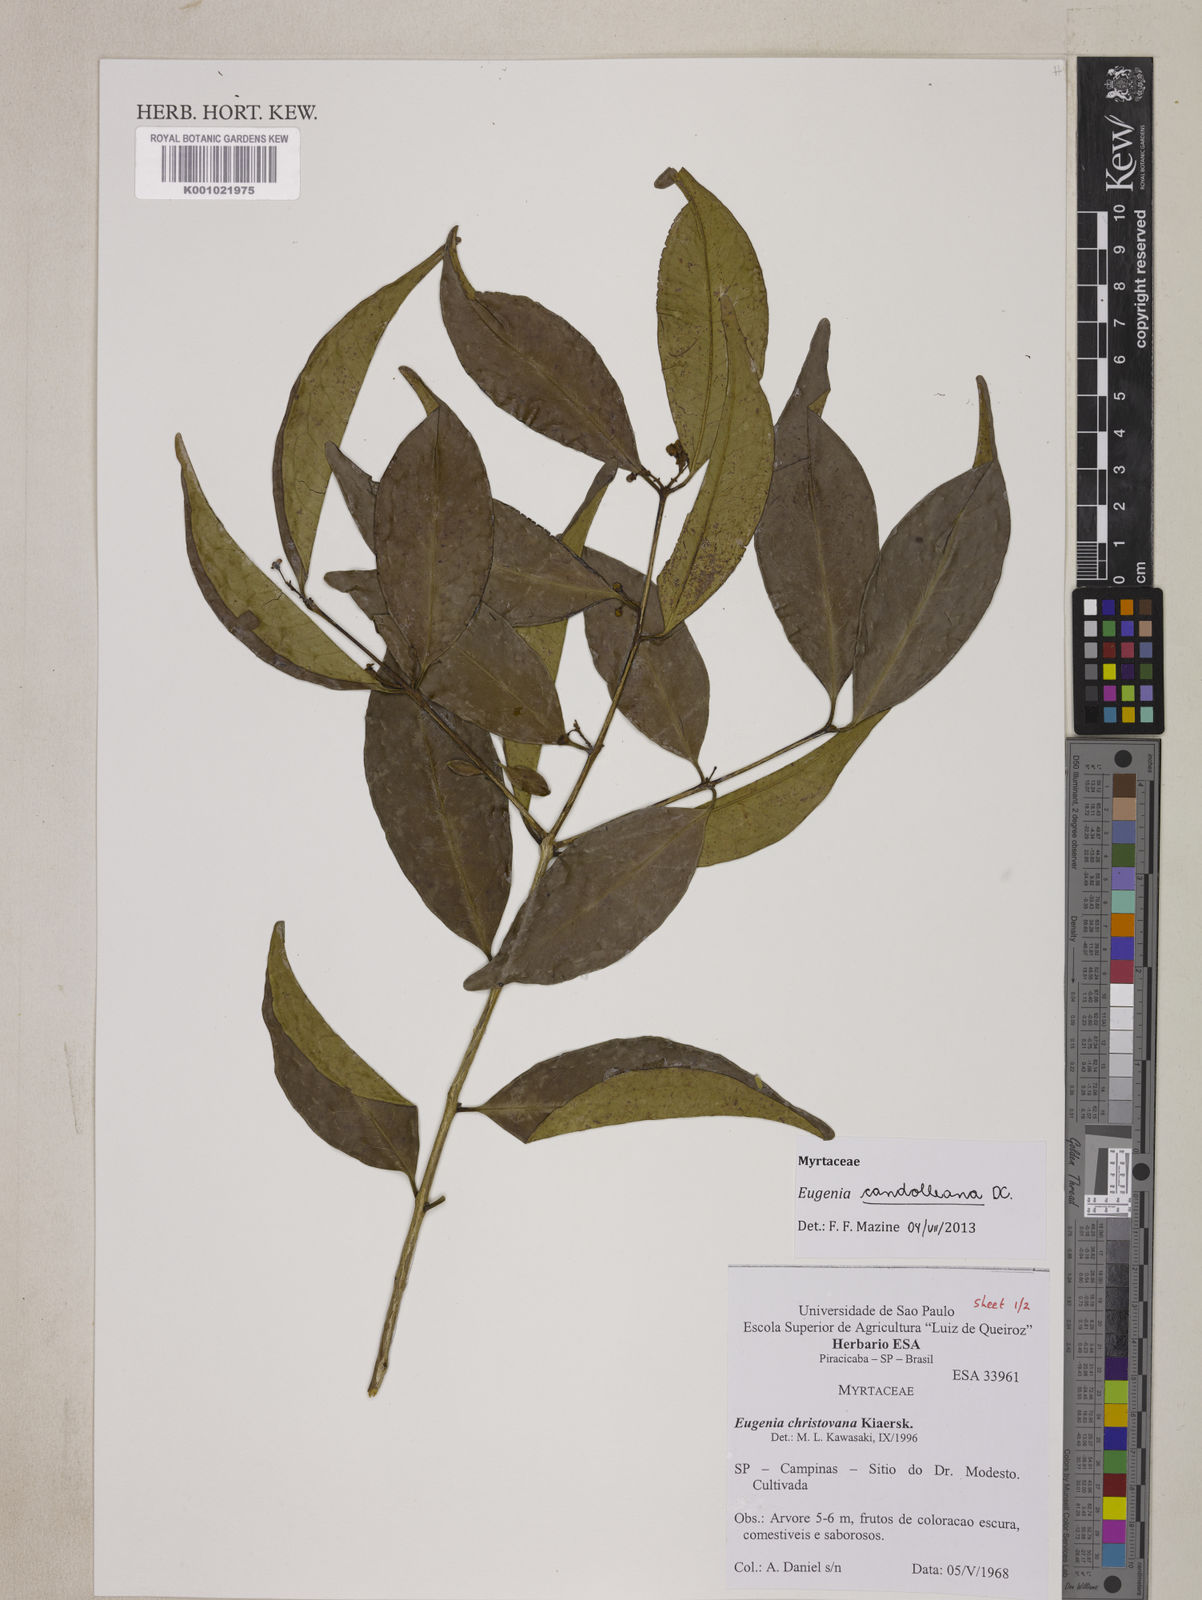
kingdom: Plantae
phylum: Tracheophyta
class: Magnoliopsida
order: Myrtales
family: Myrtaceae
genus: Eugenia
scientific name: Eugenia candolleana
